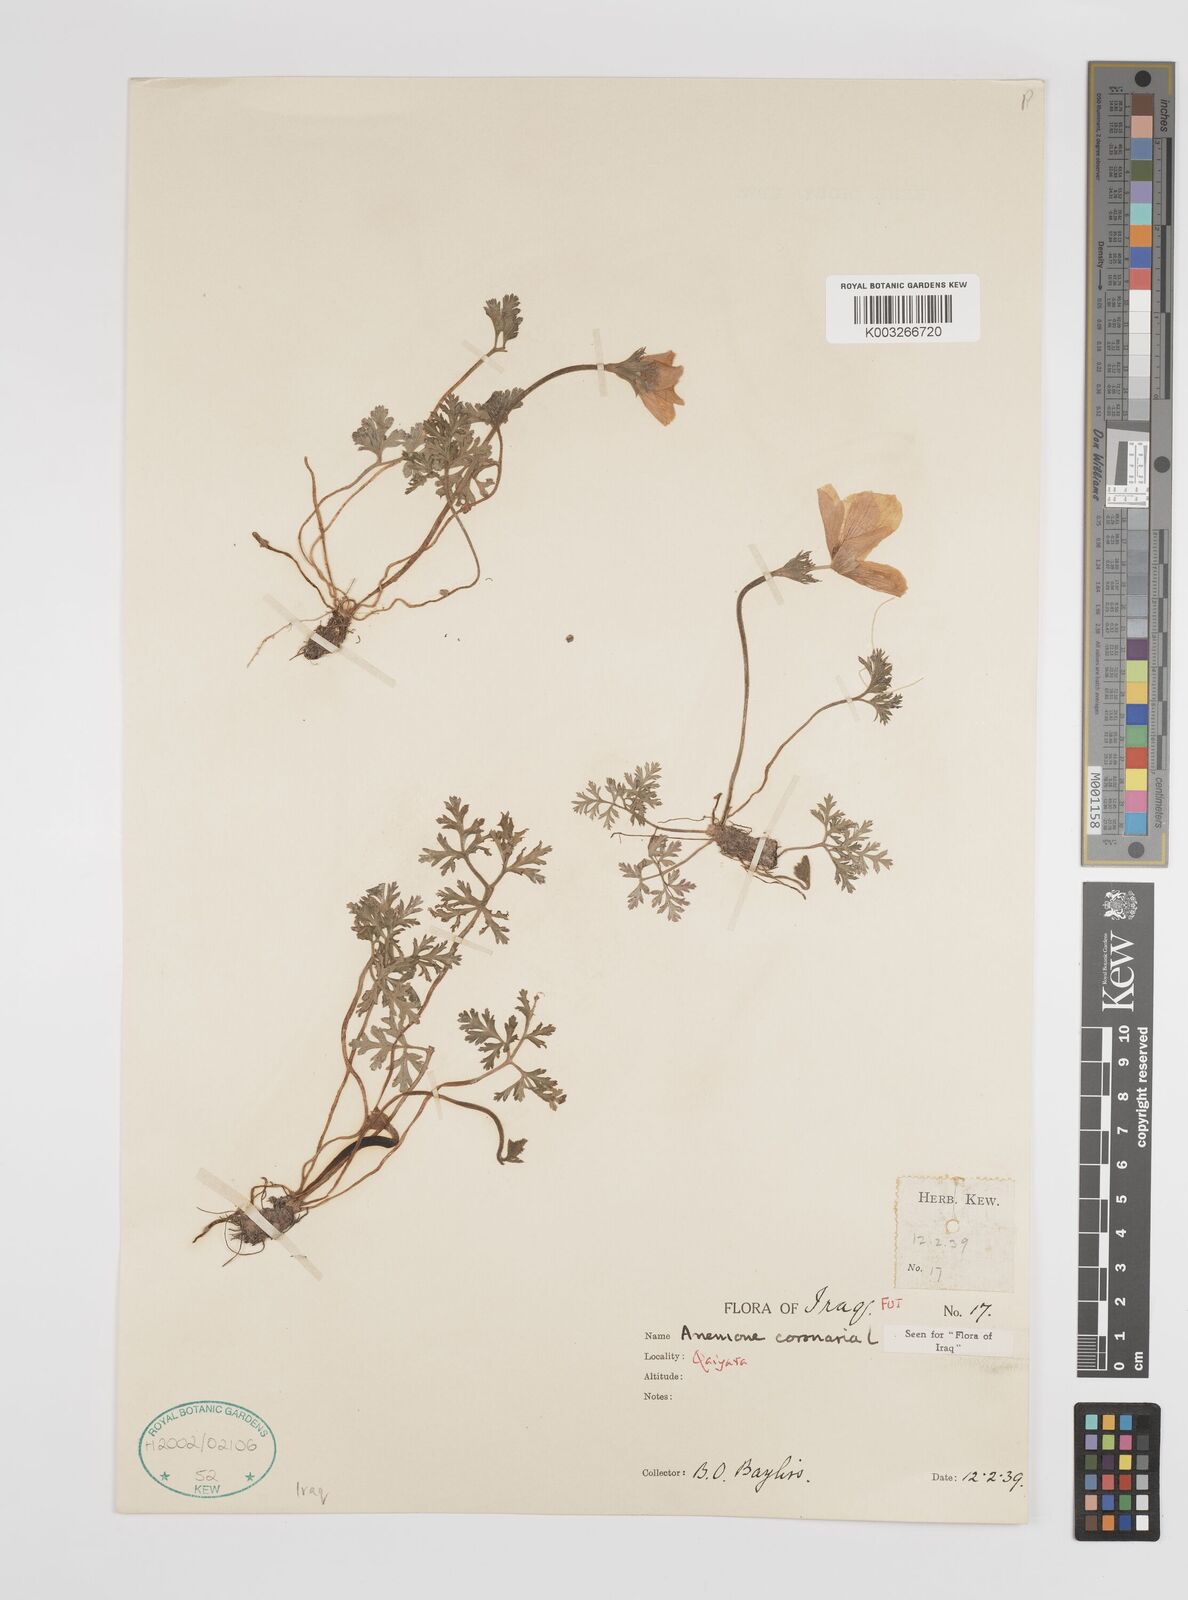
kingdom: Plantae
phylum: Tracheophyta
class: Magnoliopsida
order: Ranunculales
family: Ranunculaceae
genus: Anemone
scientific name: Anemone coronaria
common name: Poppy anemone
